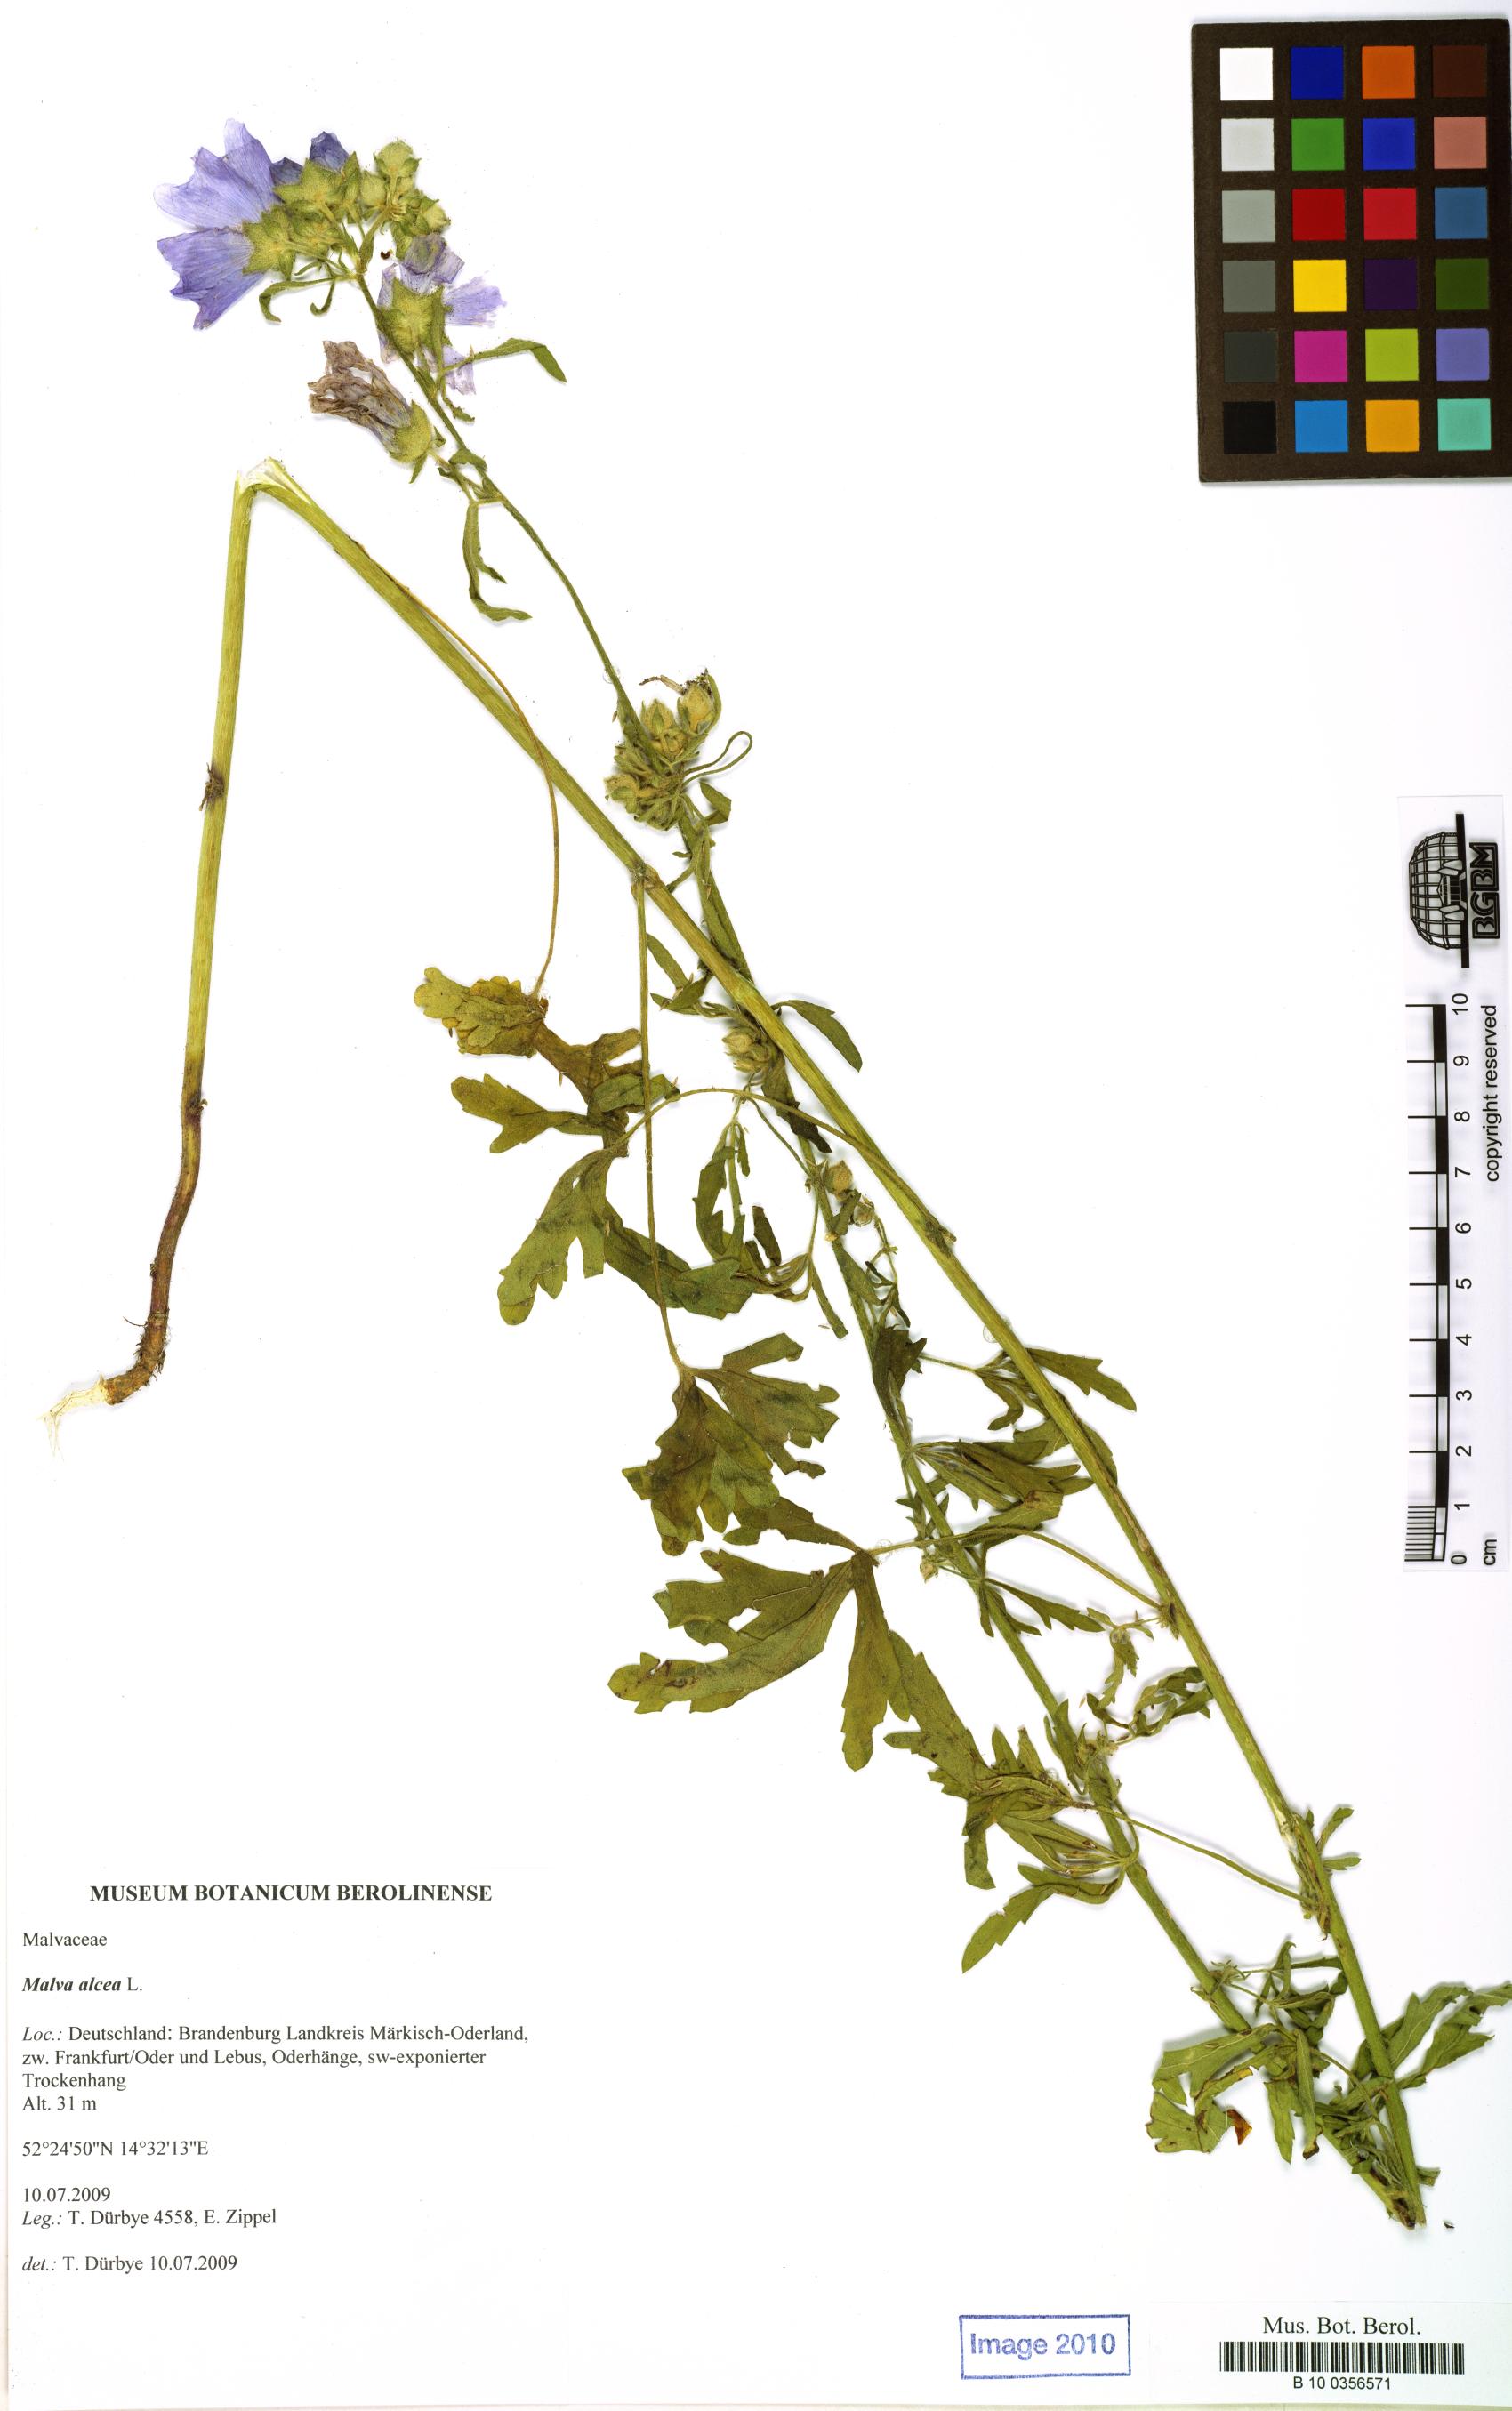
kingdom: Plantae
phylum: Tracheophyta
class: Magnoliopsida
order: Malvales
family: Malvaceae
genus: Malva
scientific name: Malva alcea
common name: Greater musk-mallow
